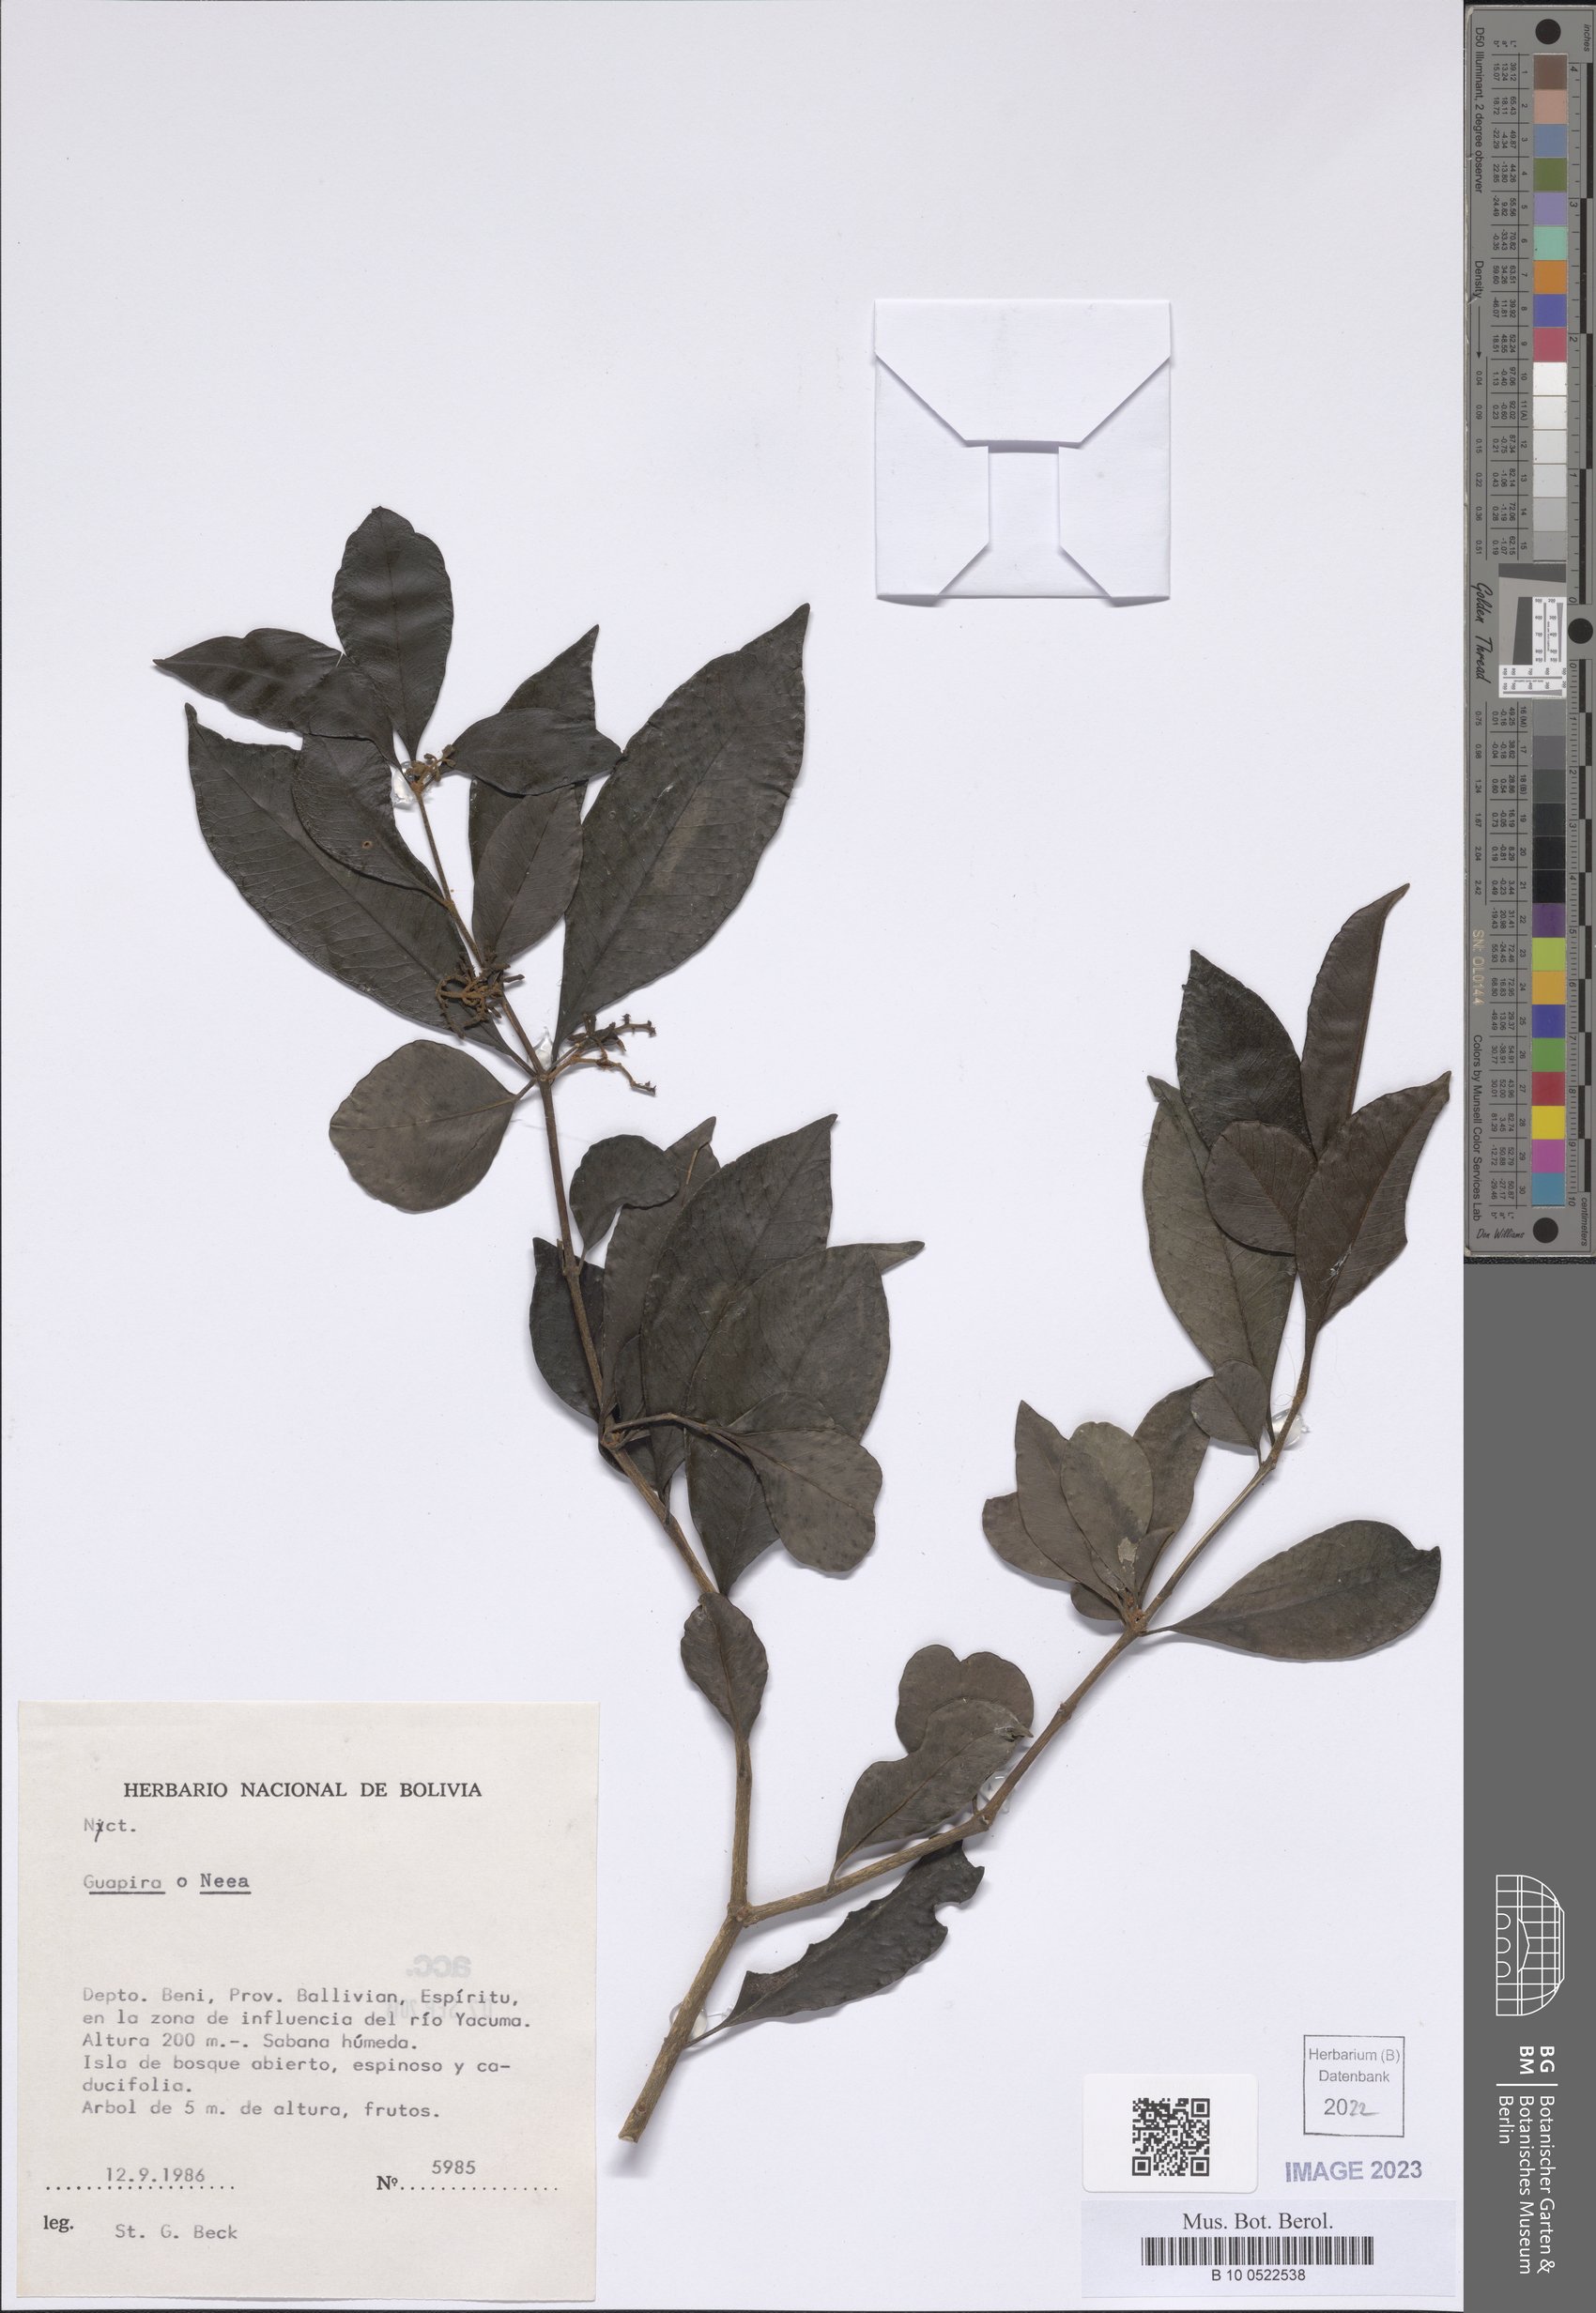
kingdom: Plantae
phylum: Tracheophyta
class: Magnoliopsida
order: Caryophyllales
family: Nyctaginaceae
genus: Guapira
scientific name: Guapira
